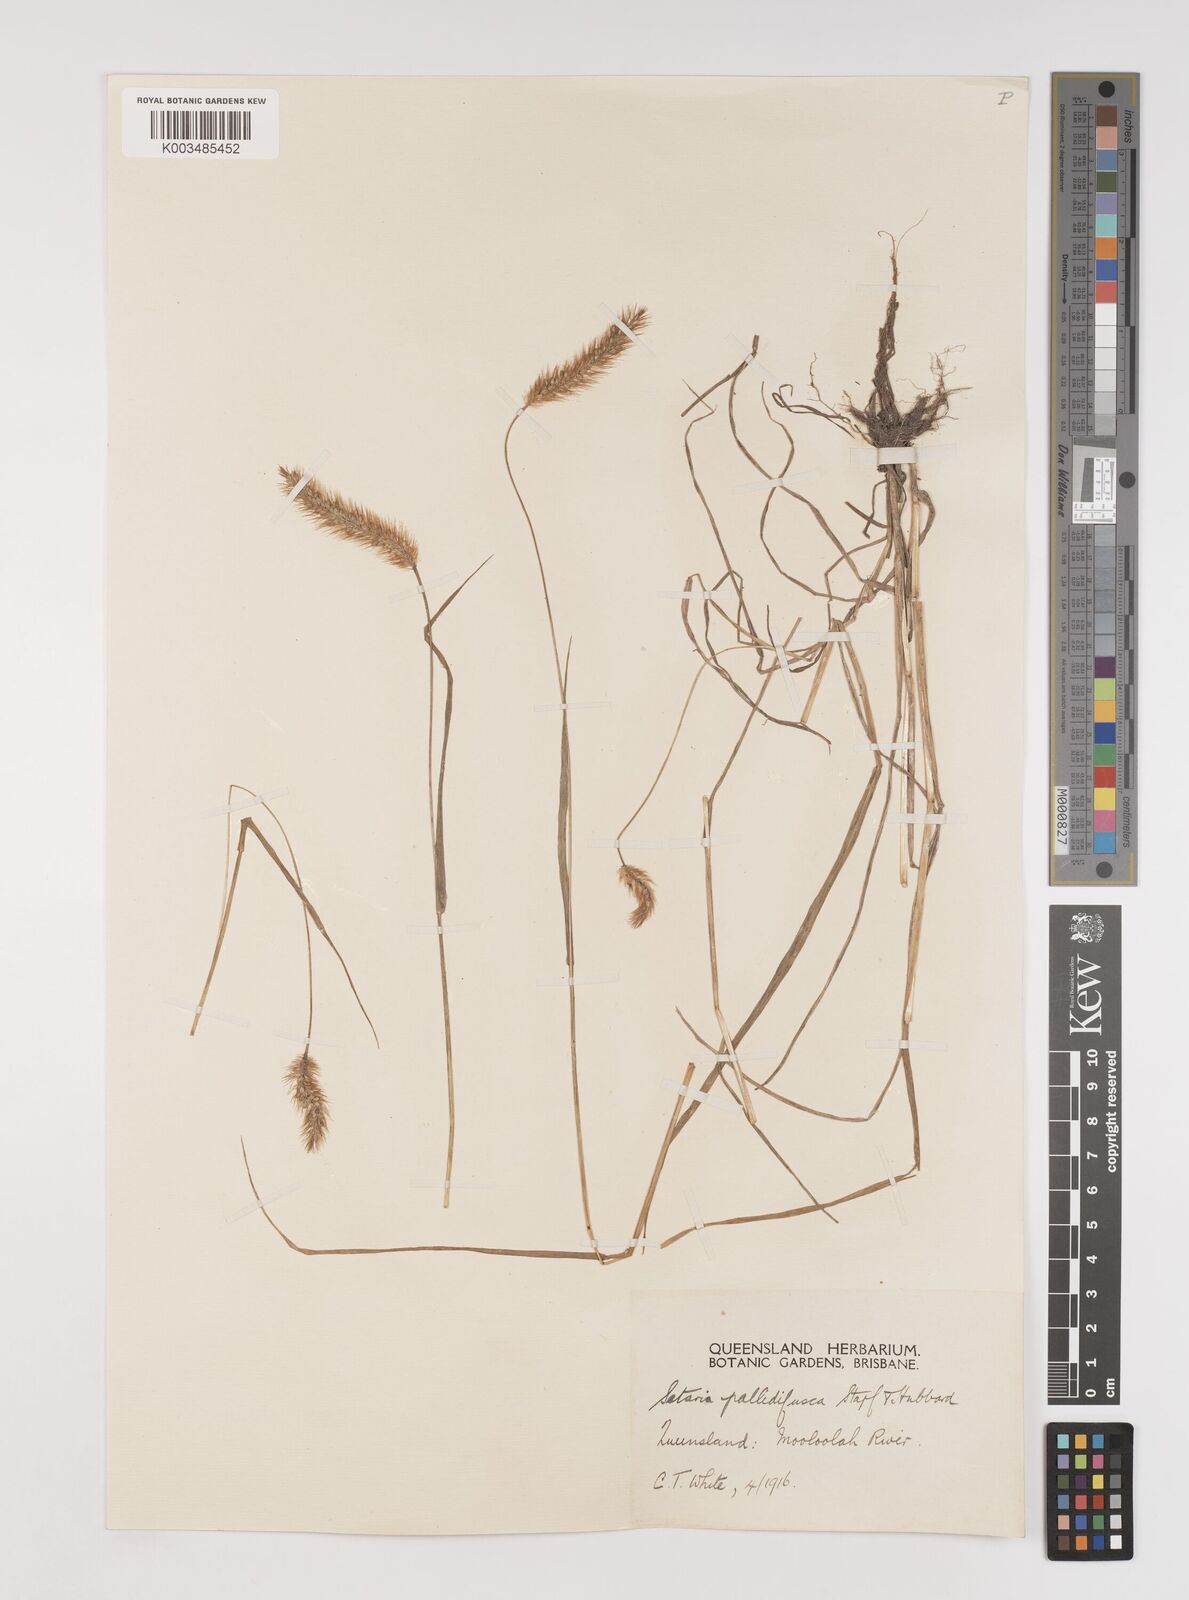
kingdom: Plantae
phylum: Tracheophyta
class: Liliopsida
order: Poales
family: Poaceae
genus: Setaria
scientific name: Setaria pumila
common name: Yellow bristle-grass
